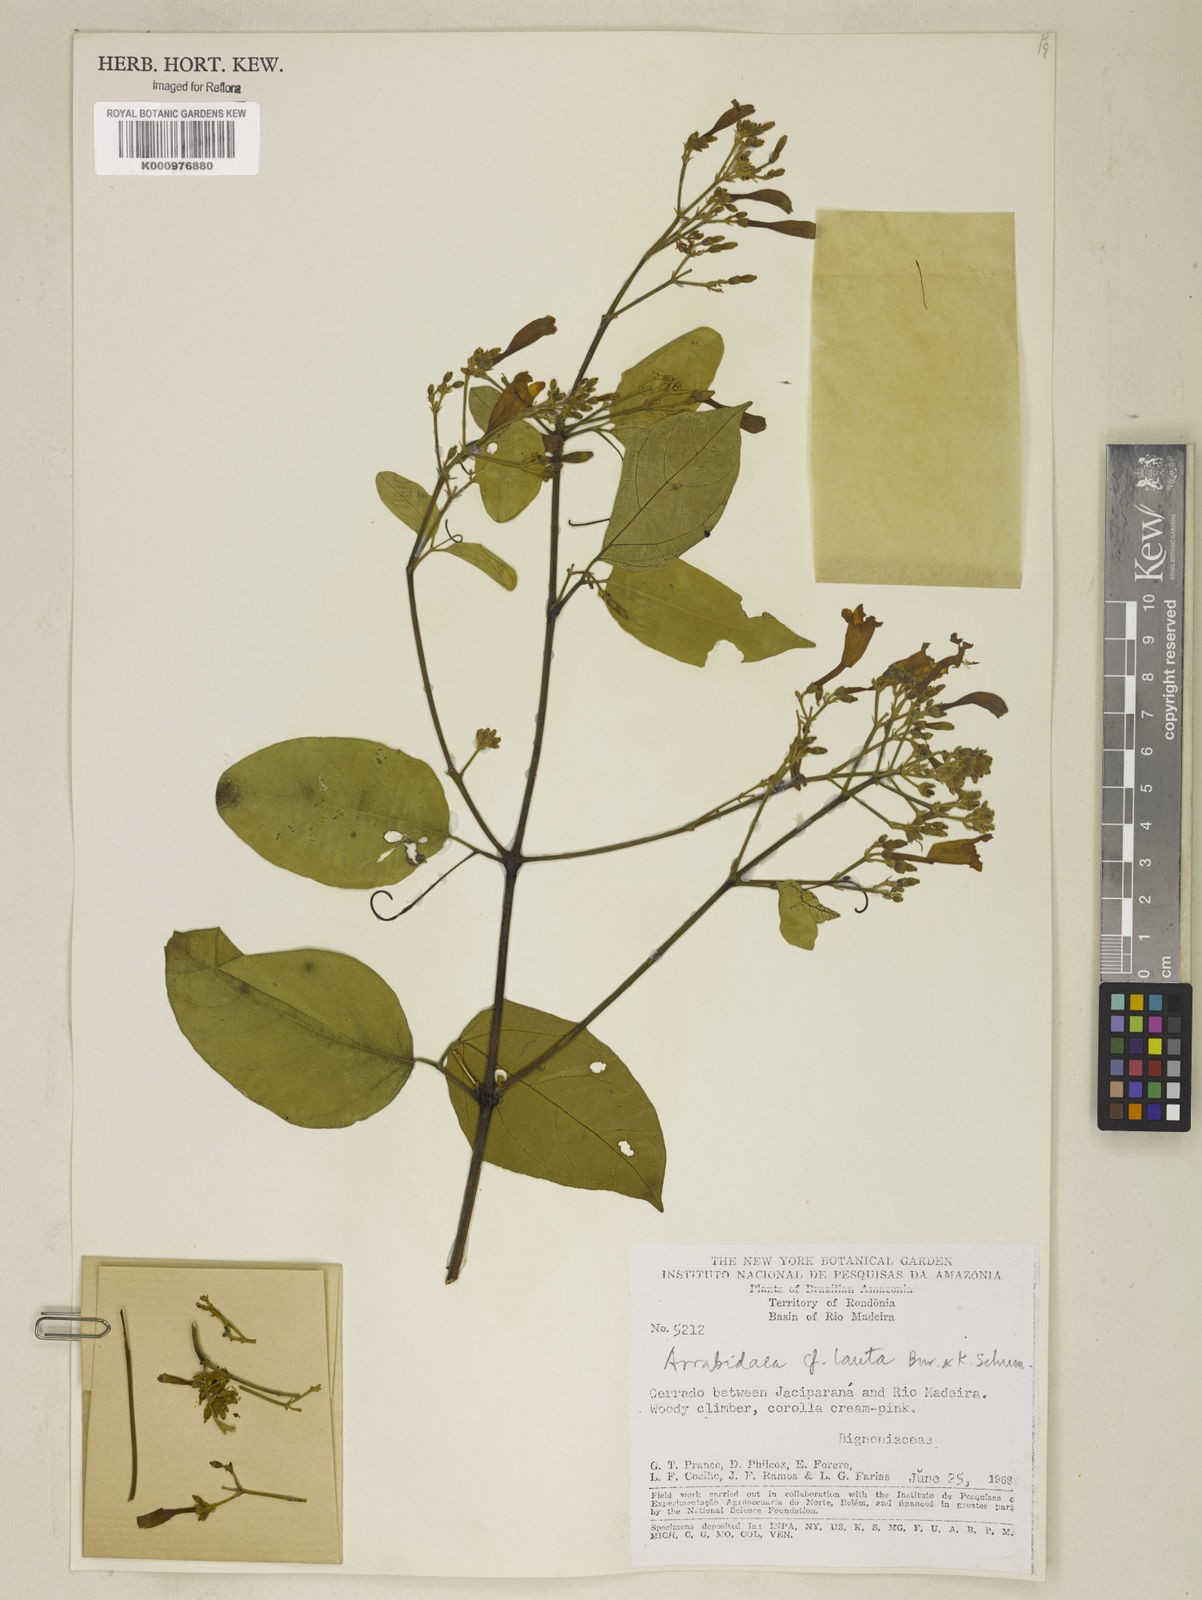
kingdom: Plantae
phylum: Tracheophyta
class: Magnoliopsida
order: Lamiales
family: Bignoniaceae
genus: Fridericia
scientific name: Fridericia lauta
